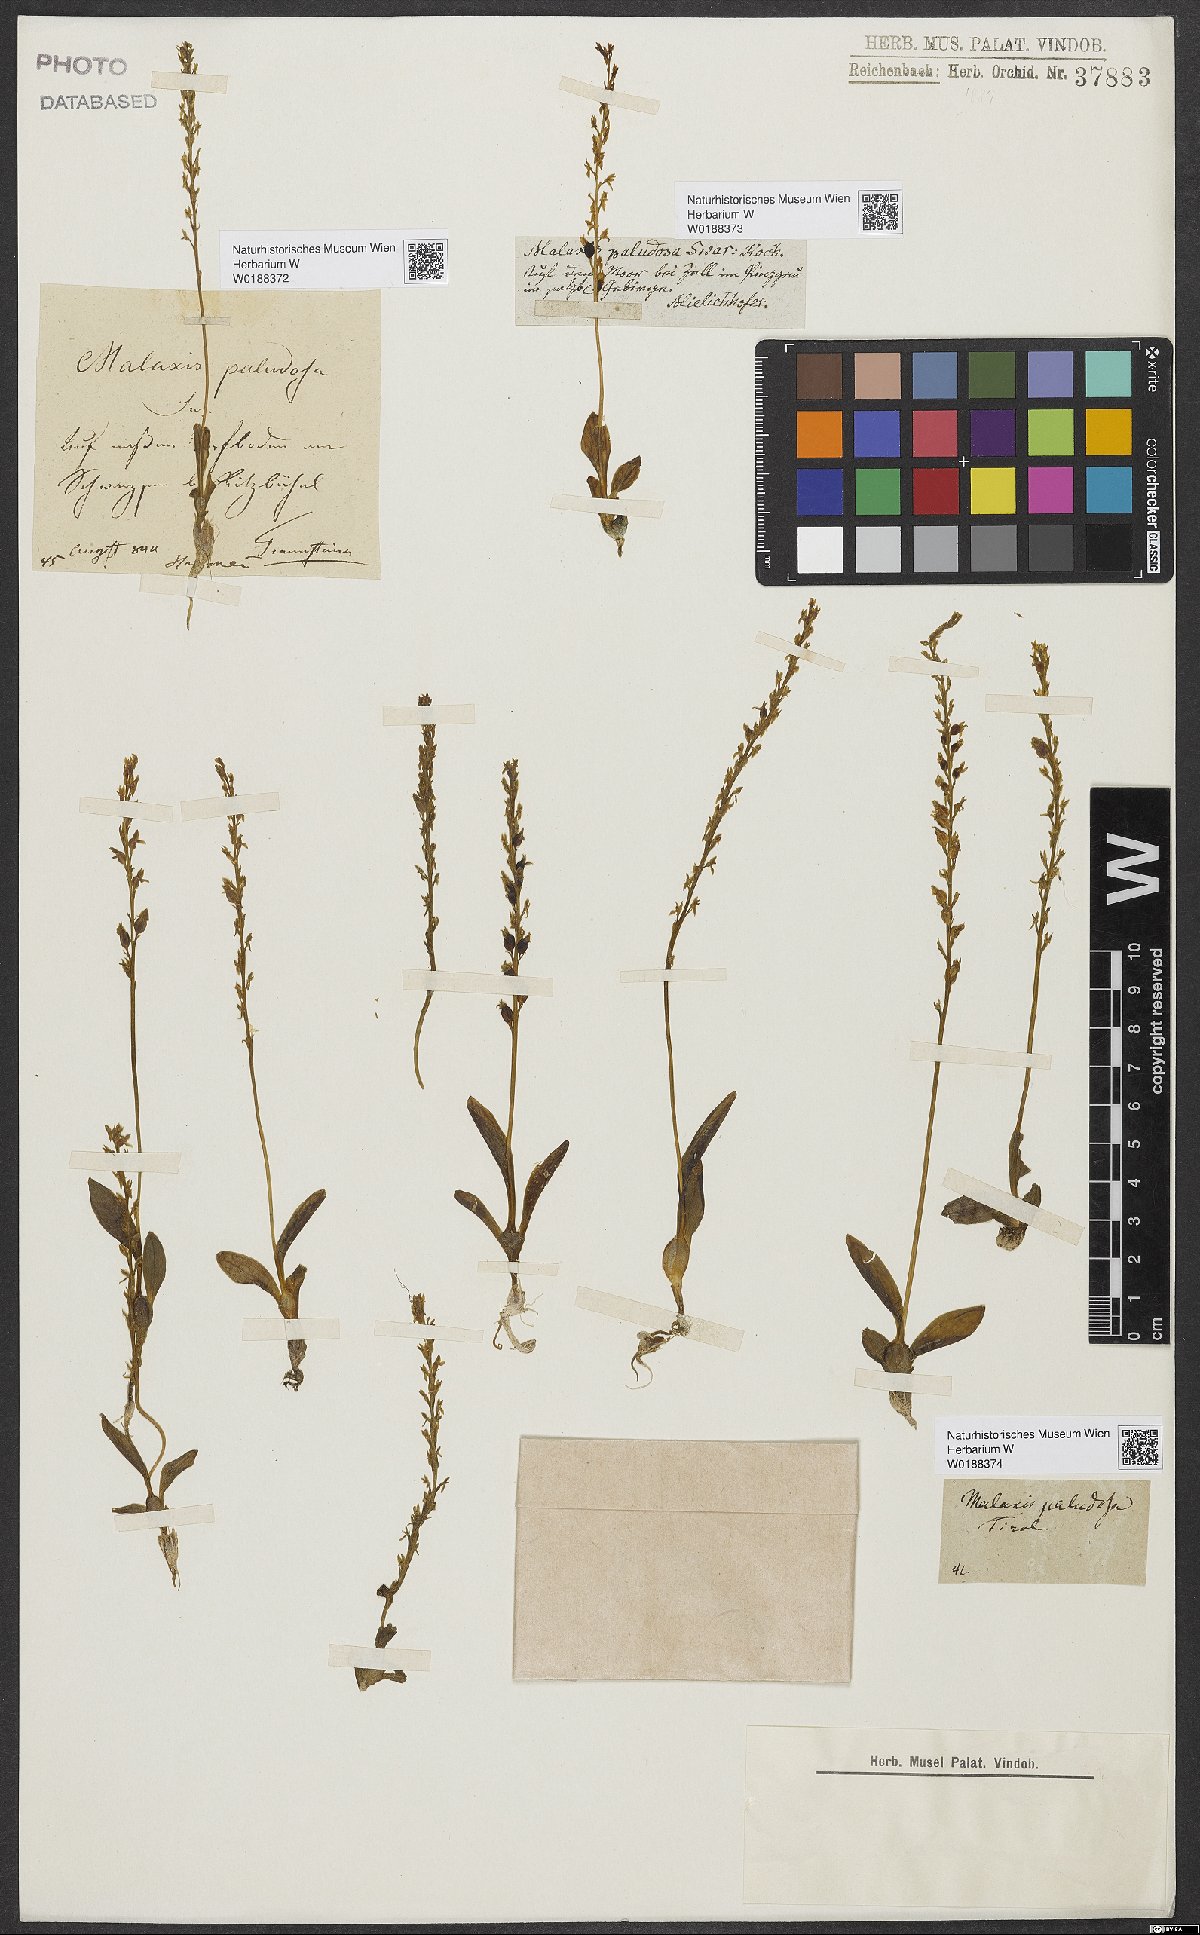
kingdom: Plantae
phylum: Tracheophyta
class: Liliopsida
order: Asparagales
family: Orchidaceae
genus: Hammarbya
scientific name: Hammarbya paludosa
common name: Bog orchid
